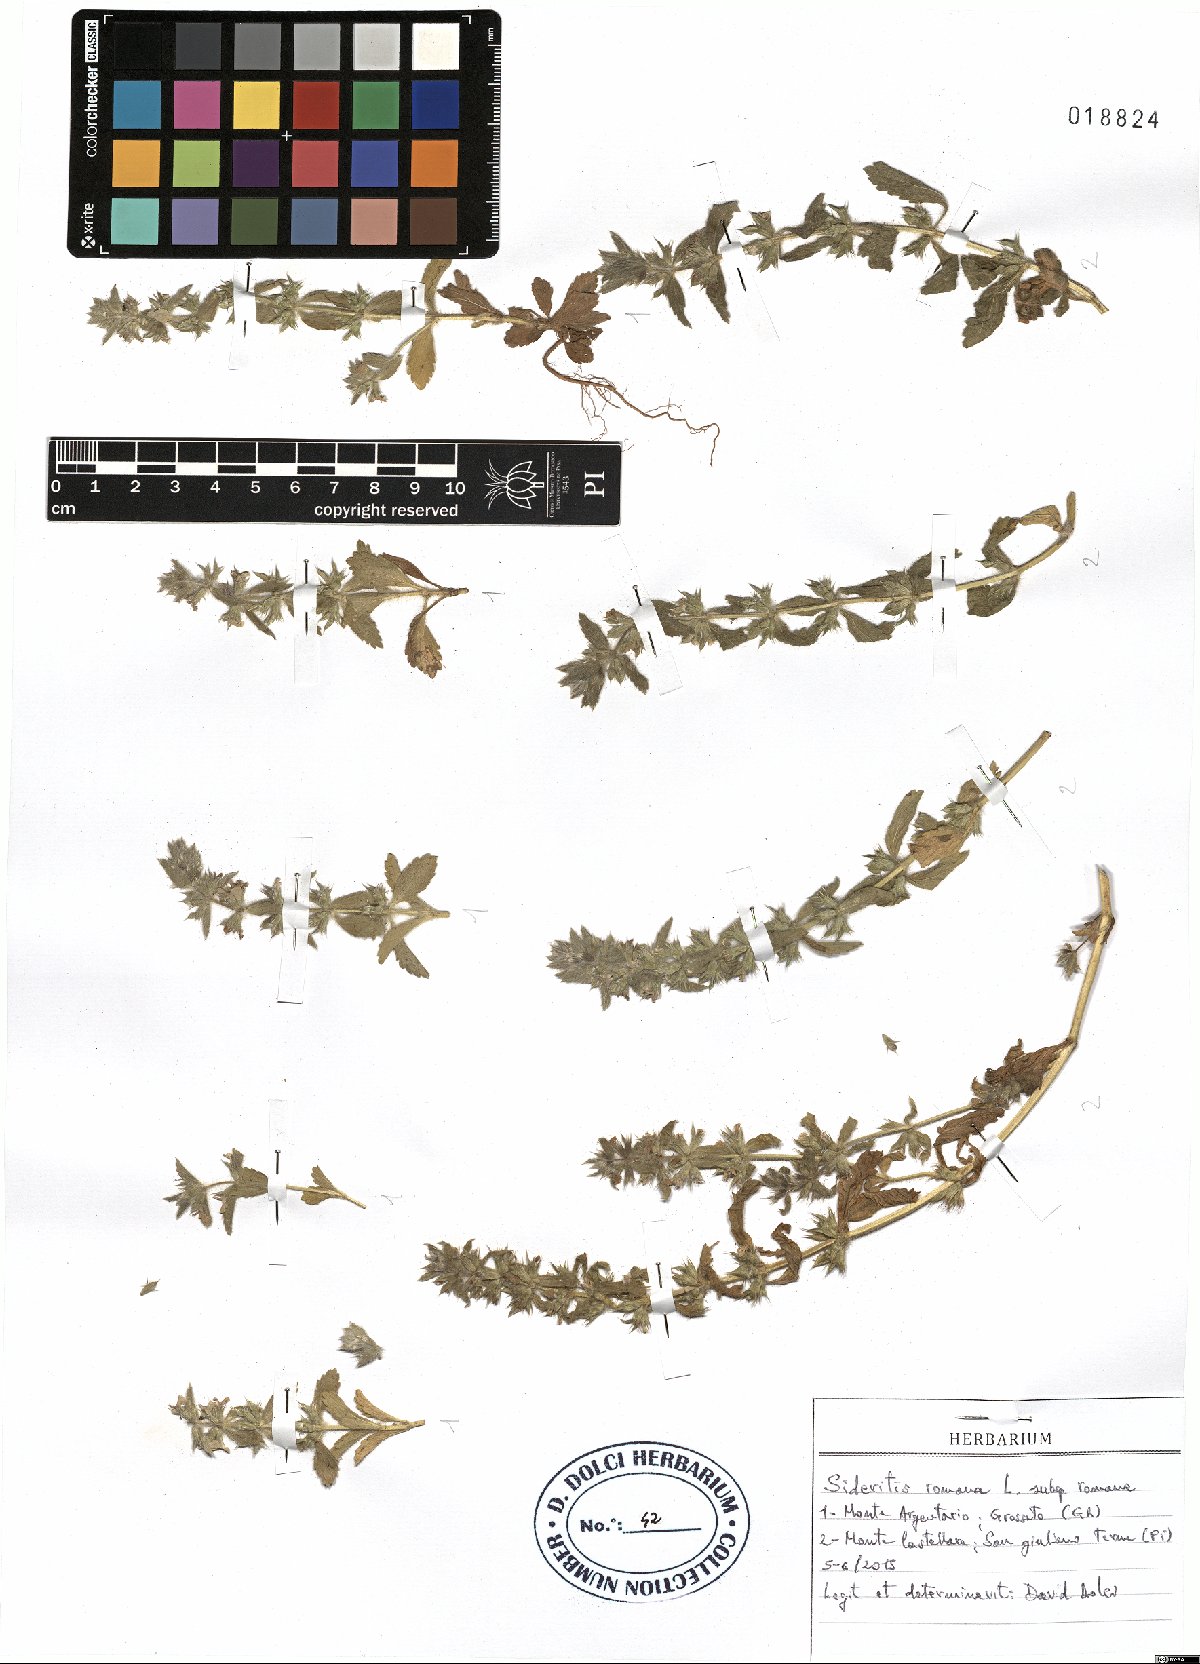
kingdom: Plantae
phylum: Tracheophyta
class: Magnoliopsida
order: Lamiales
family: Lamiaceae
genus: Sideritis
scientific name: Sideritis romana
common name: Simplebeak ironwort
